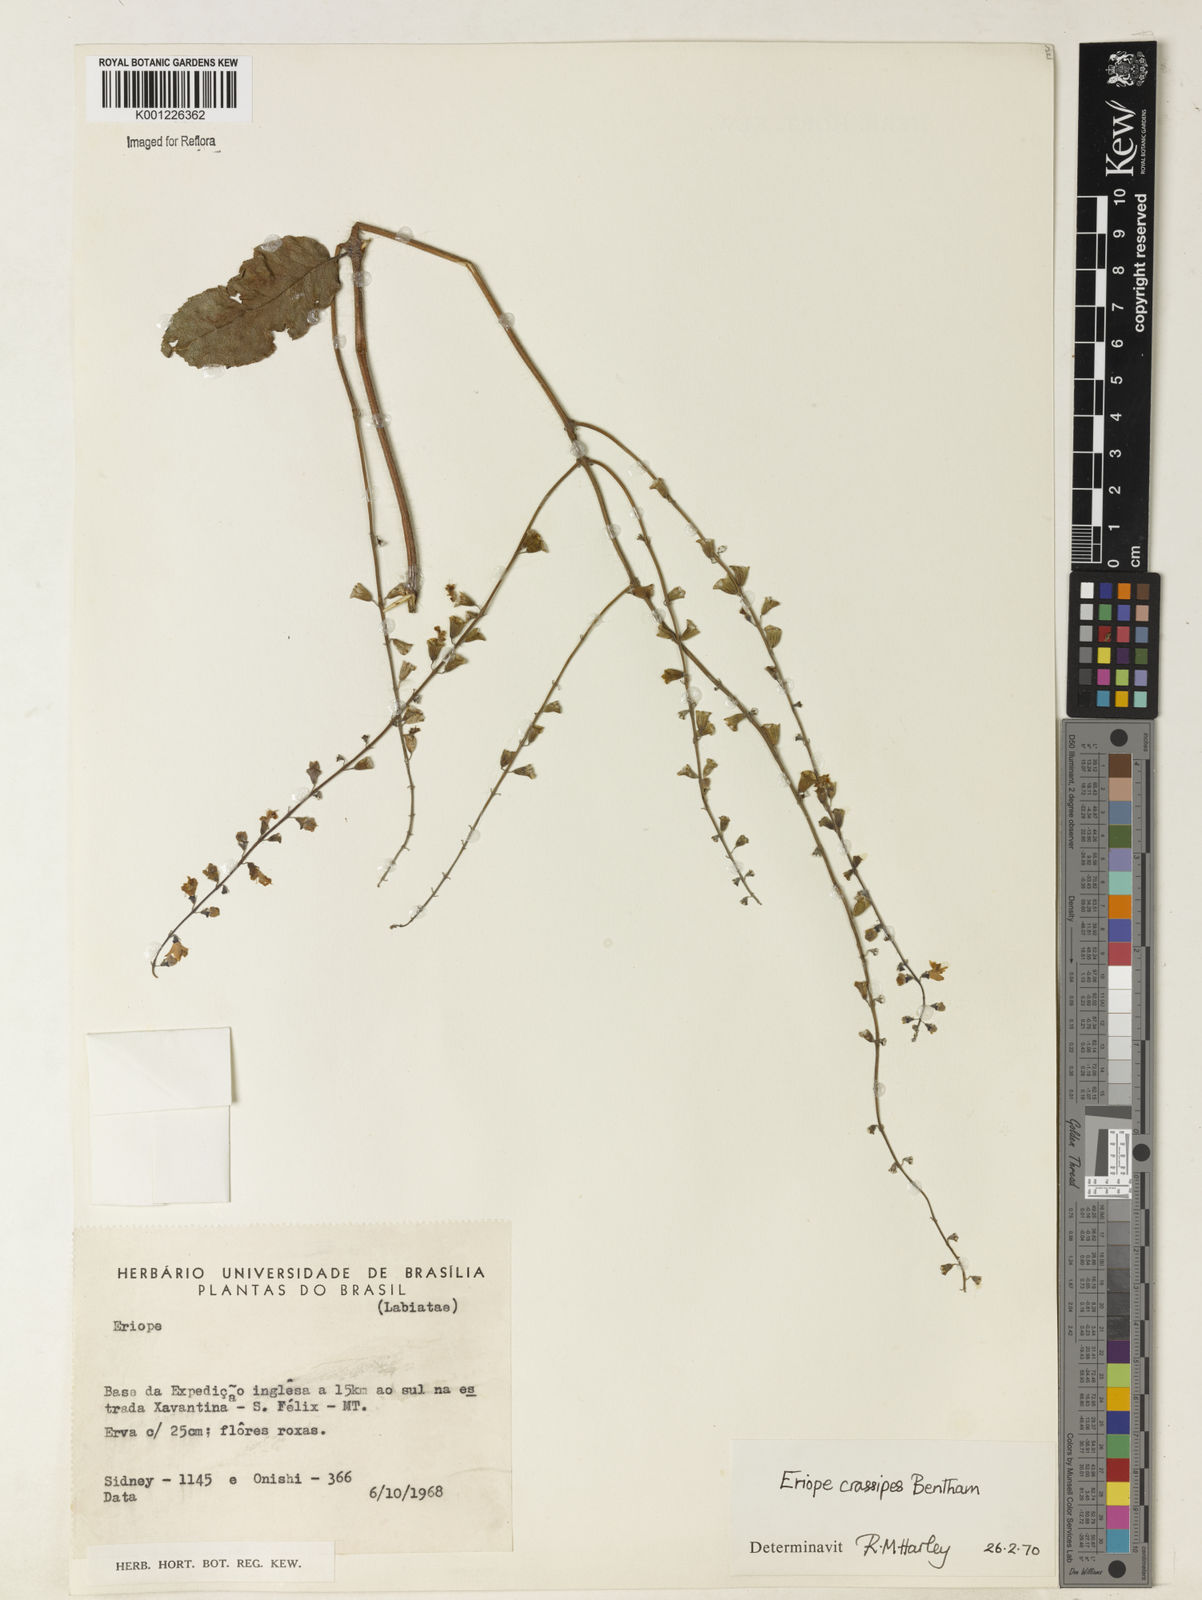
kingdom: Plantae
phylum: Tracheophyta
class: Magnoliopsida
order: Lamiales
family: Lamiaceae
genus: Eriope
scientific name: Eriope crassipes
